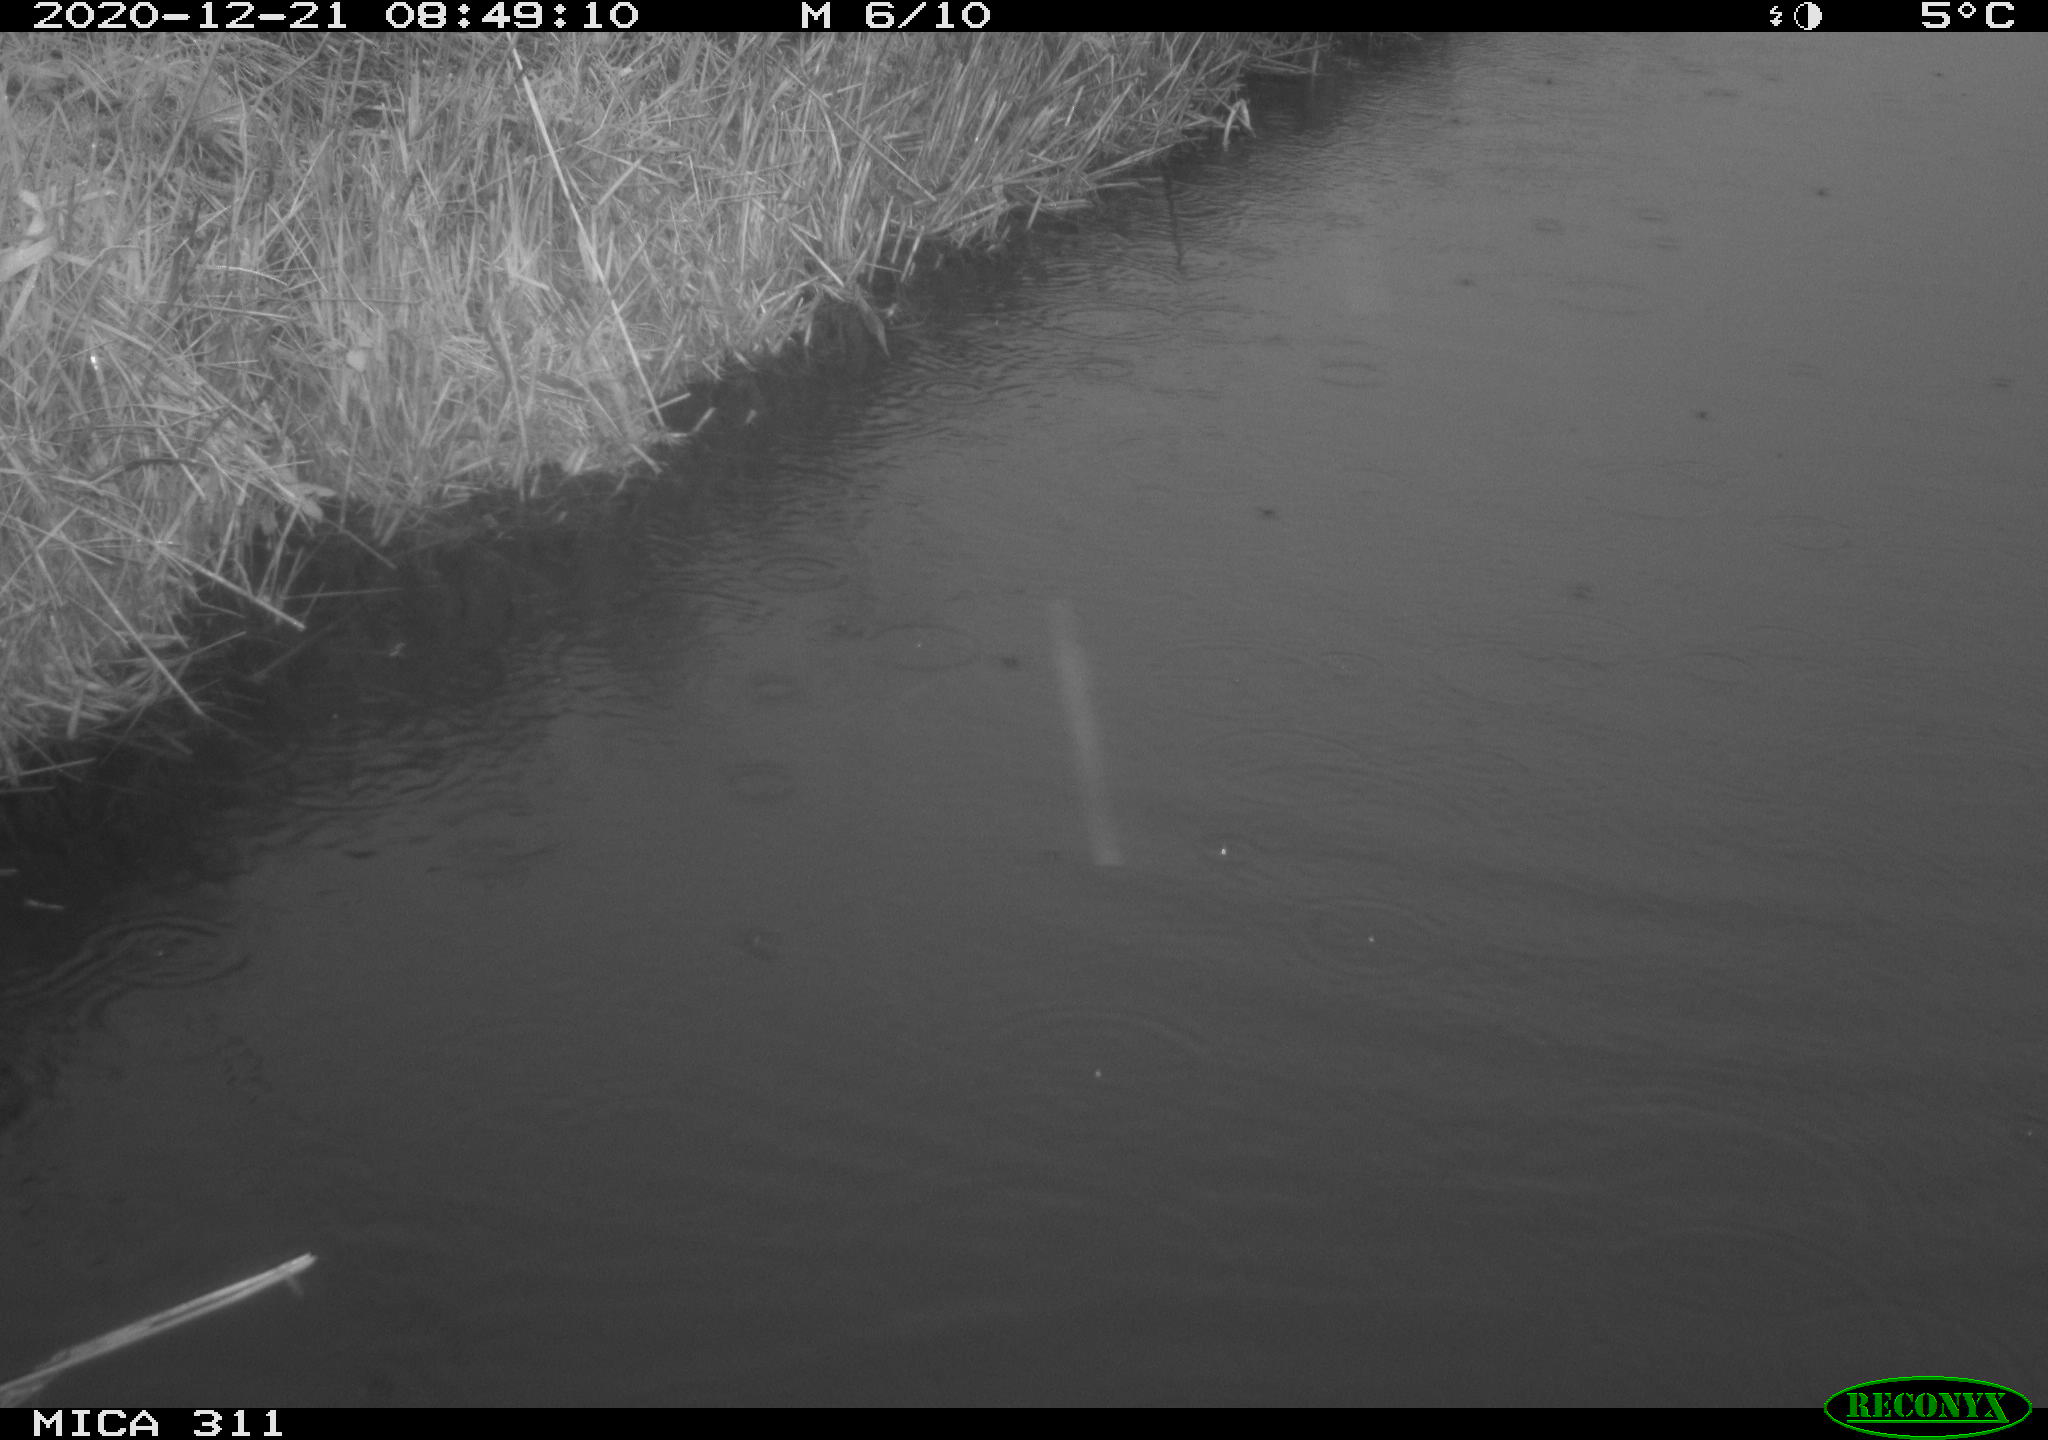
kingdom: Animalia
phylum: Chordata
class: Aves
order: Gruiformes
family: Rallidae
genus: Gallinula
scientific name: Gallinula chloropus
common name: Common moorhen
